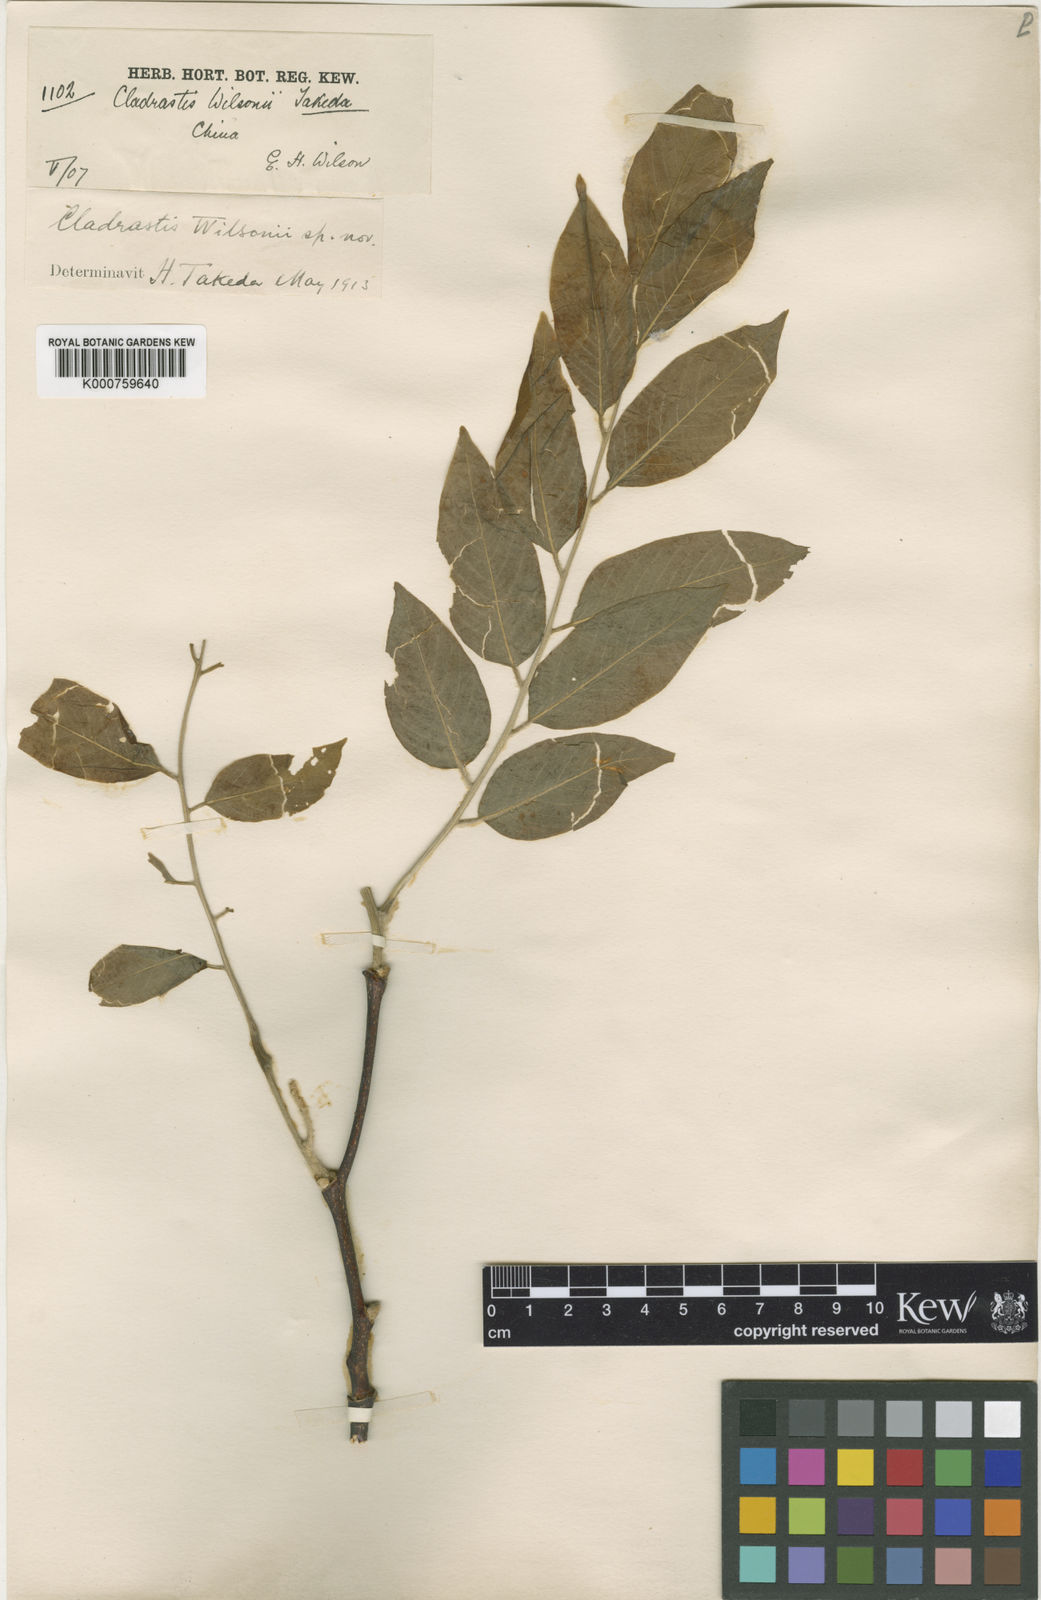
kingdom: Plantae
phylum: Tracheophyta
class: Magnoliopsida
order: Fabales
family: Fabaceae
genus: Cladrastis
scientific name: Cladrastis wilsonii
